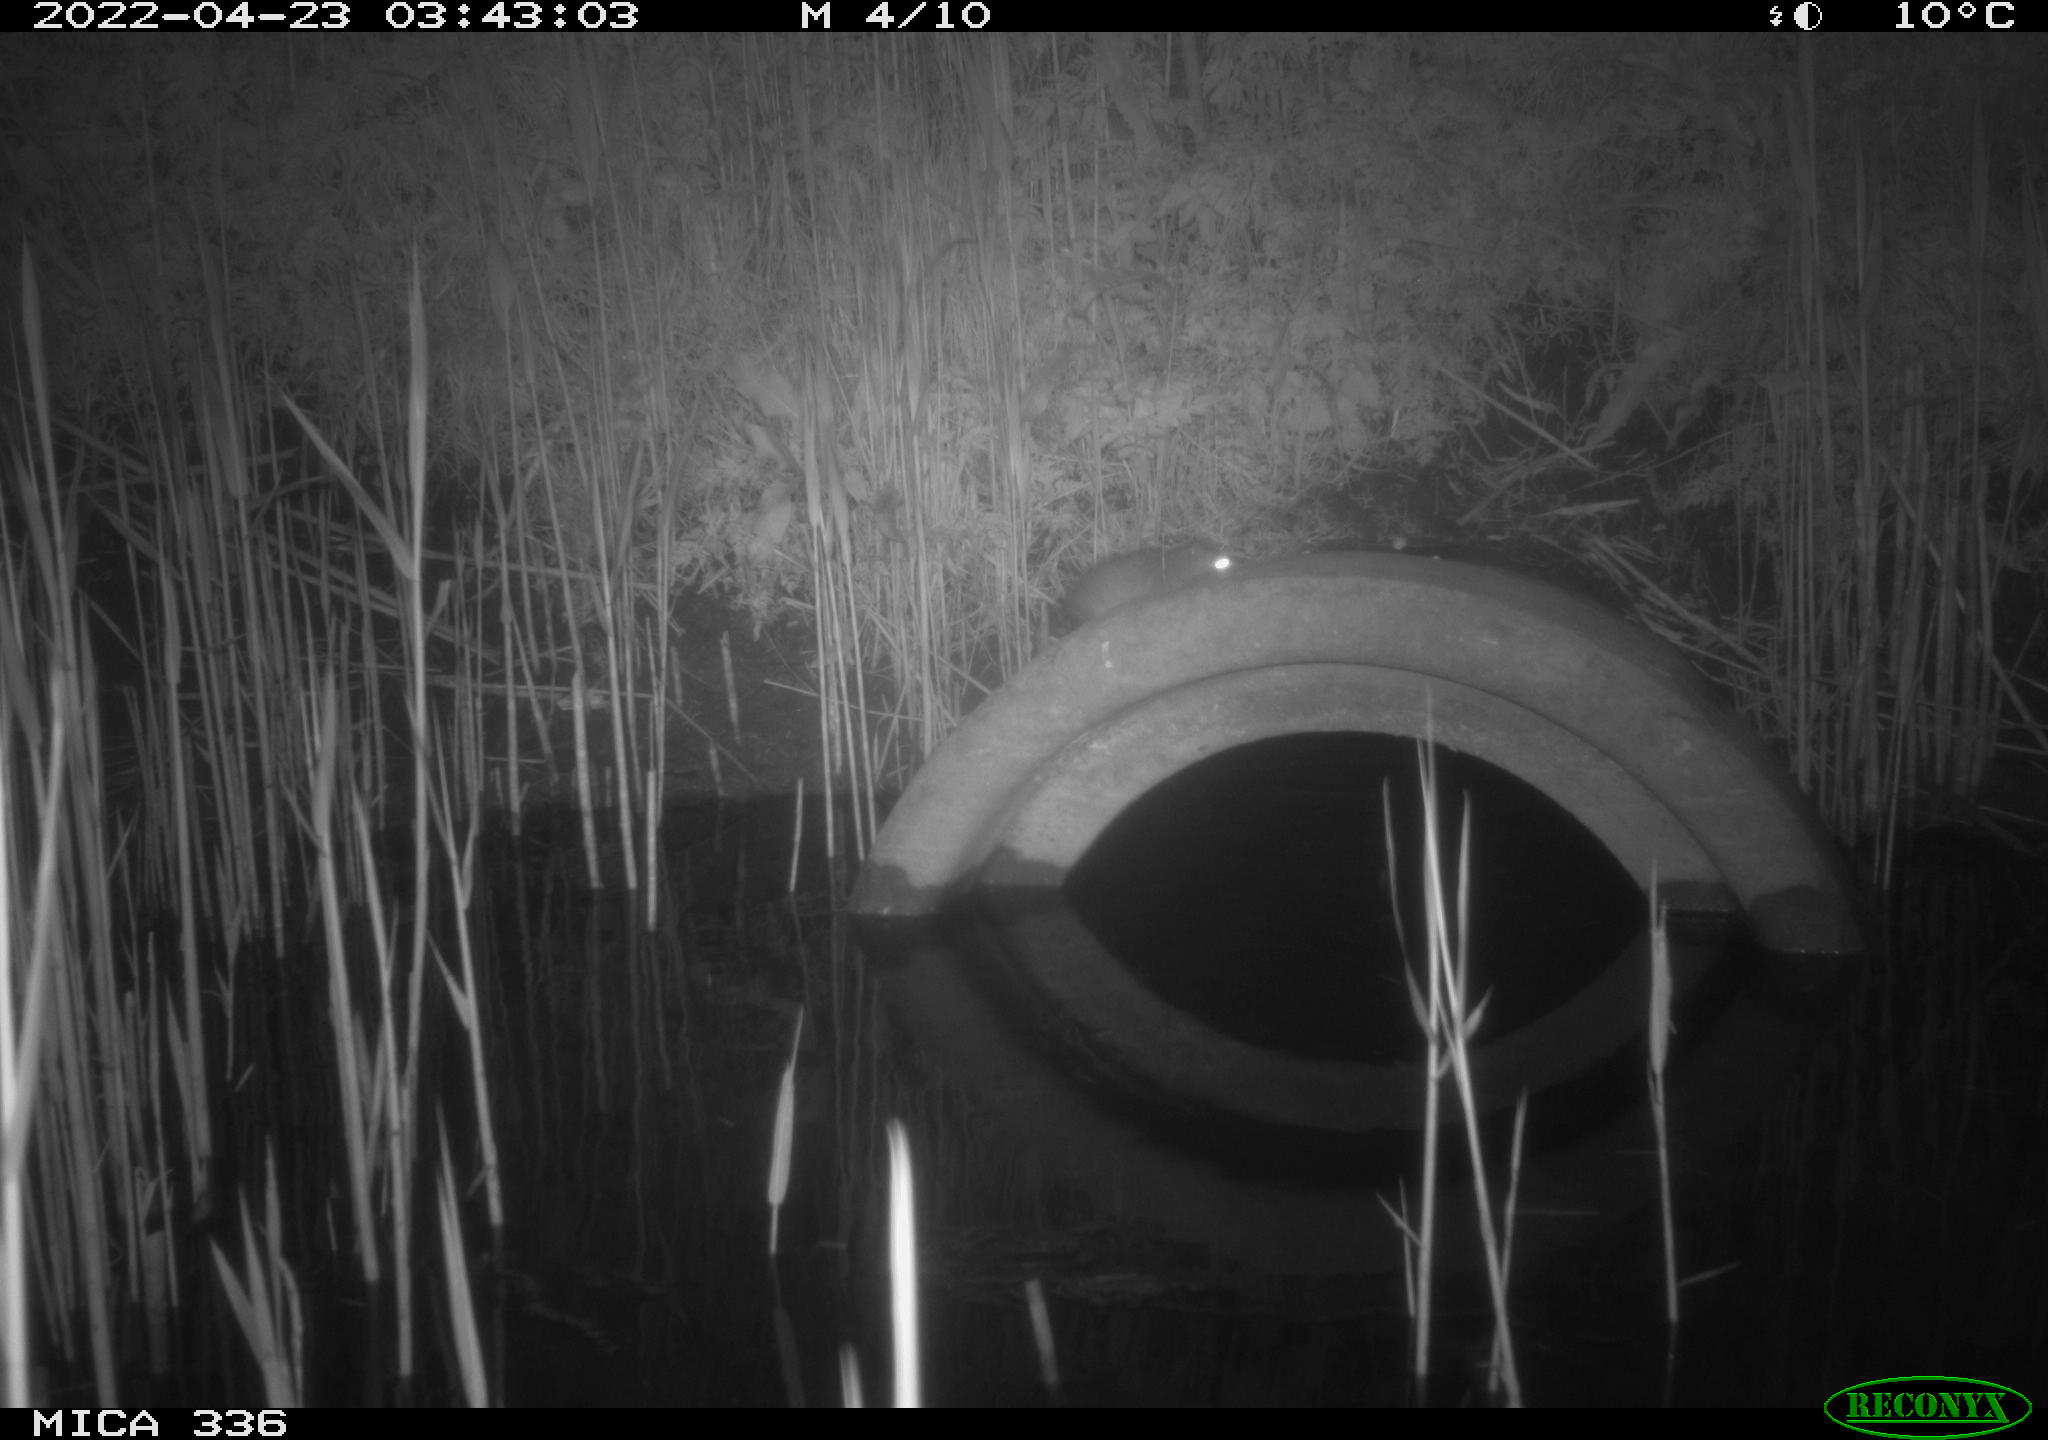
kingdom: Animalia
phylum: Chordata
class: Mammalia
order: Rodentia
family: Muridae
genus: Rattus
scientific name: Rattus norvegicus
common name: Brown rat
